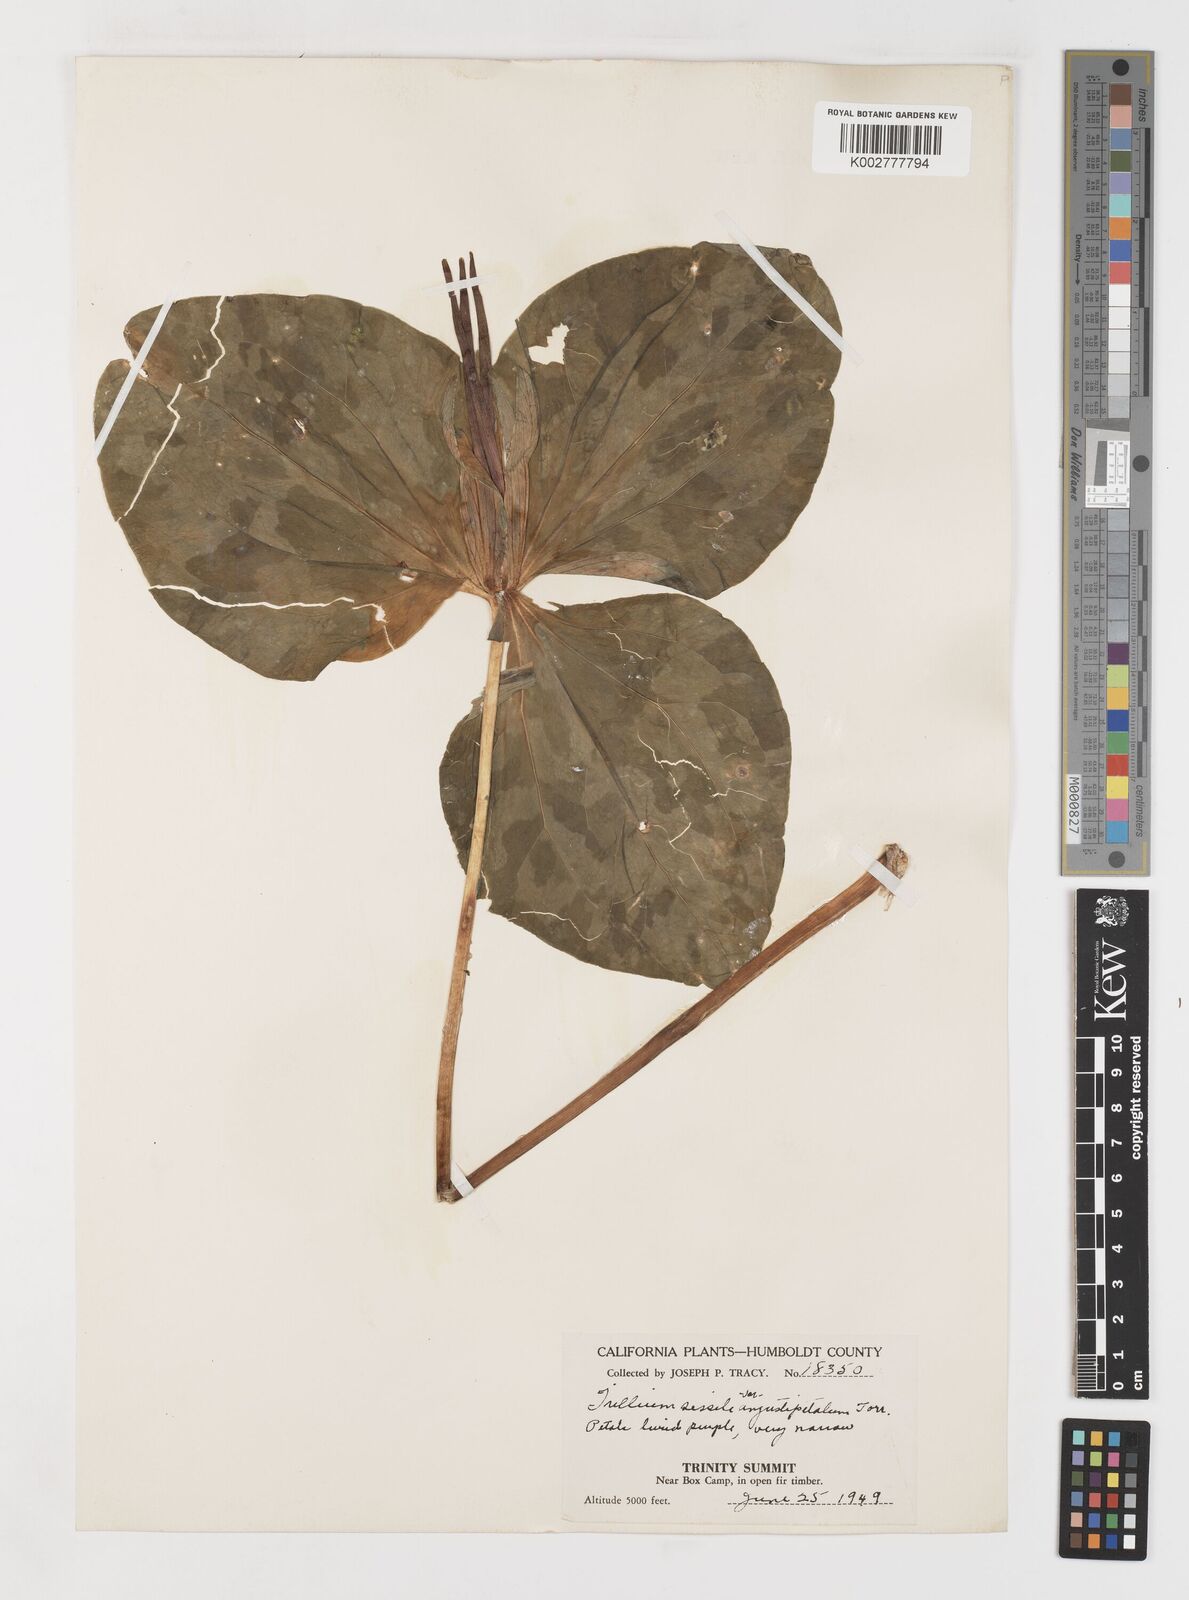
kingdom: Plantae
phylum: Tracheophyta
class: Liliopsida
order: Liliales
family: Melanthiaceae
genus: Trillium
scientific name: Trillium pusillum
